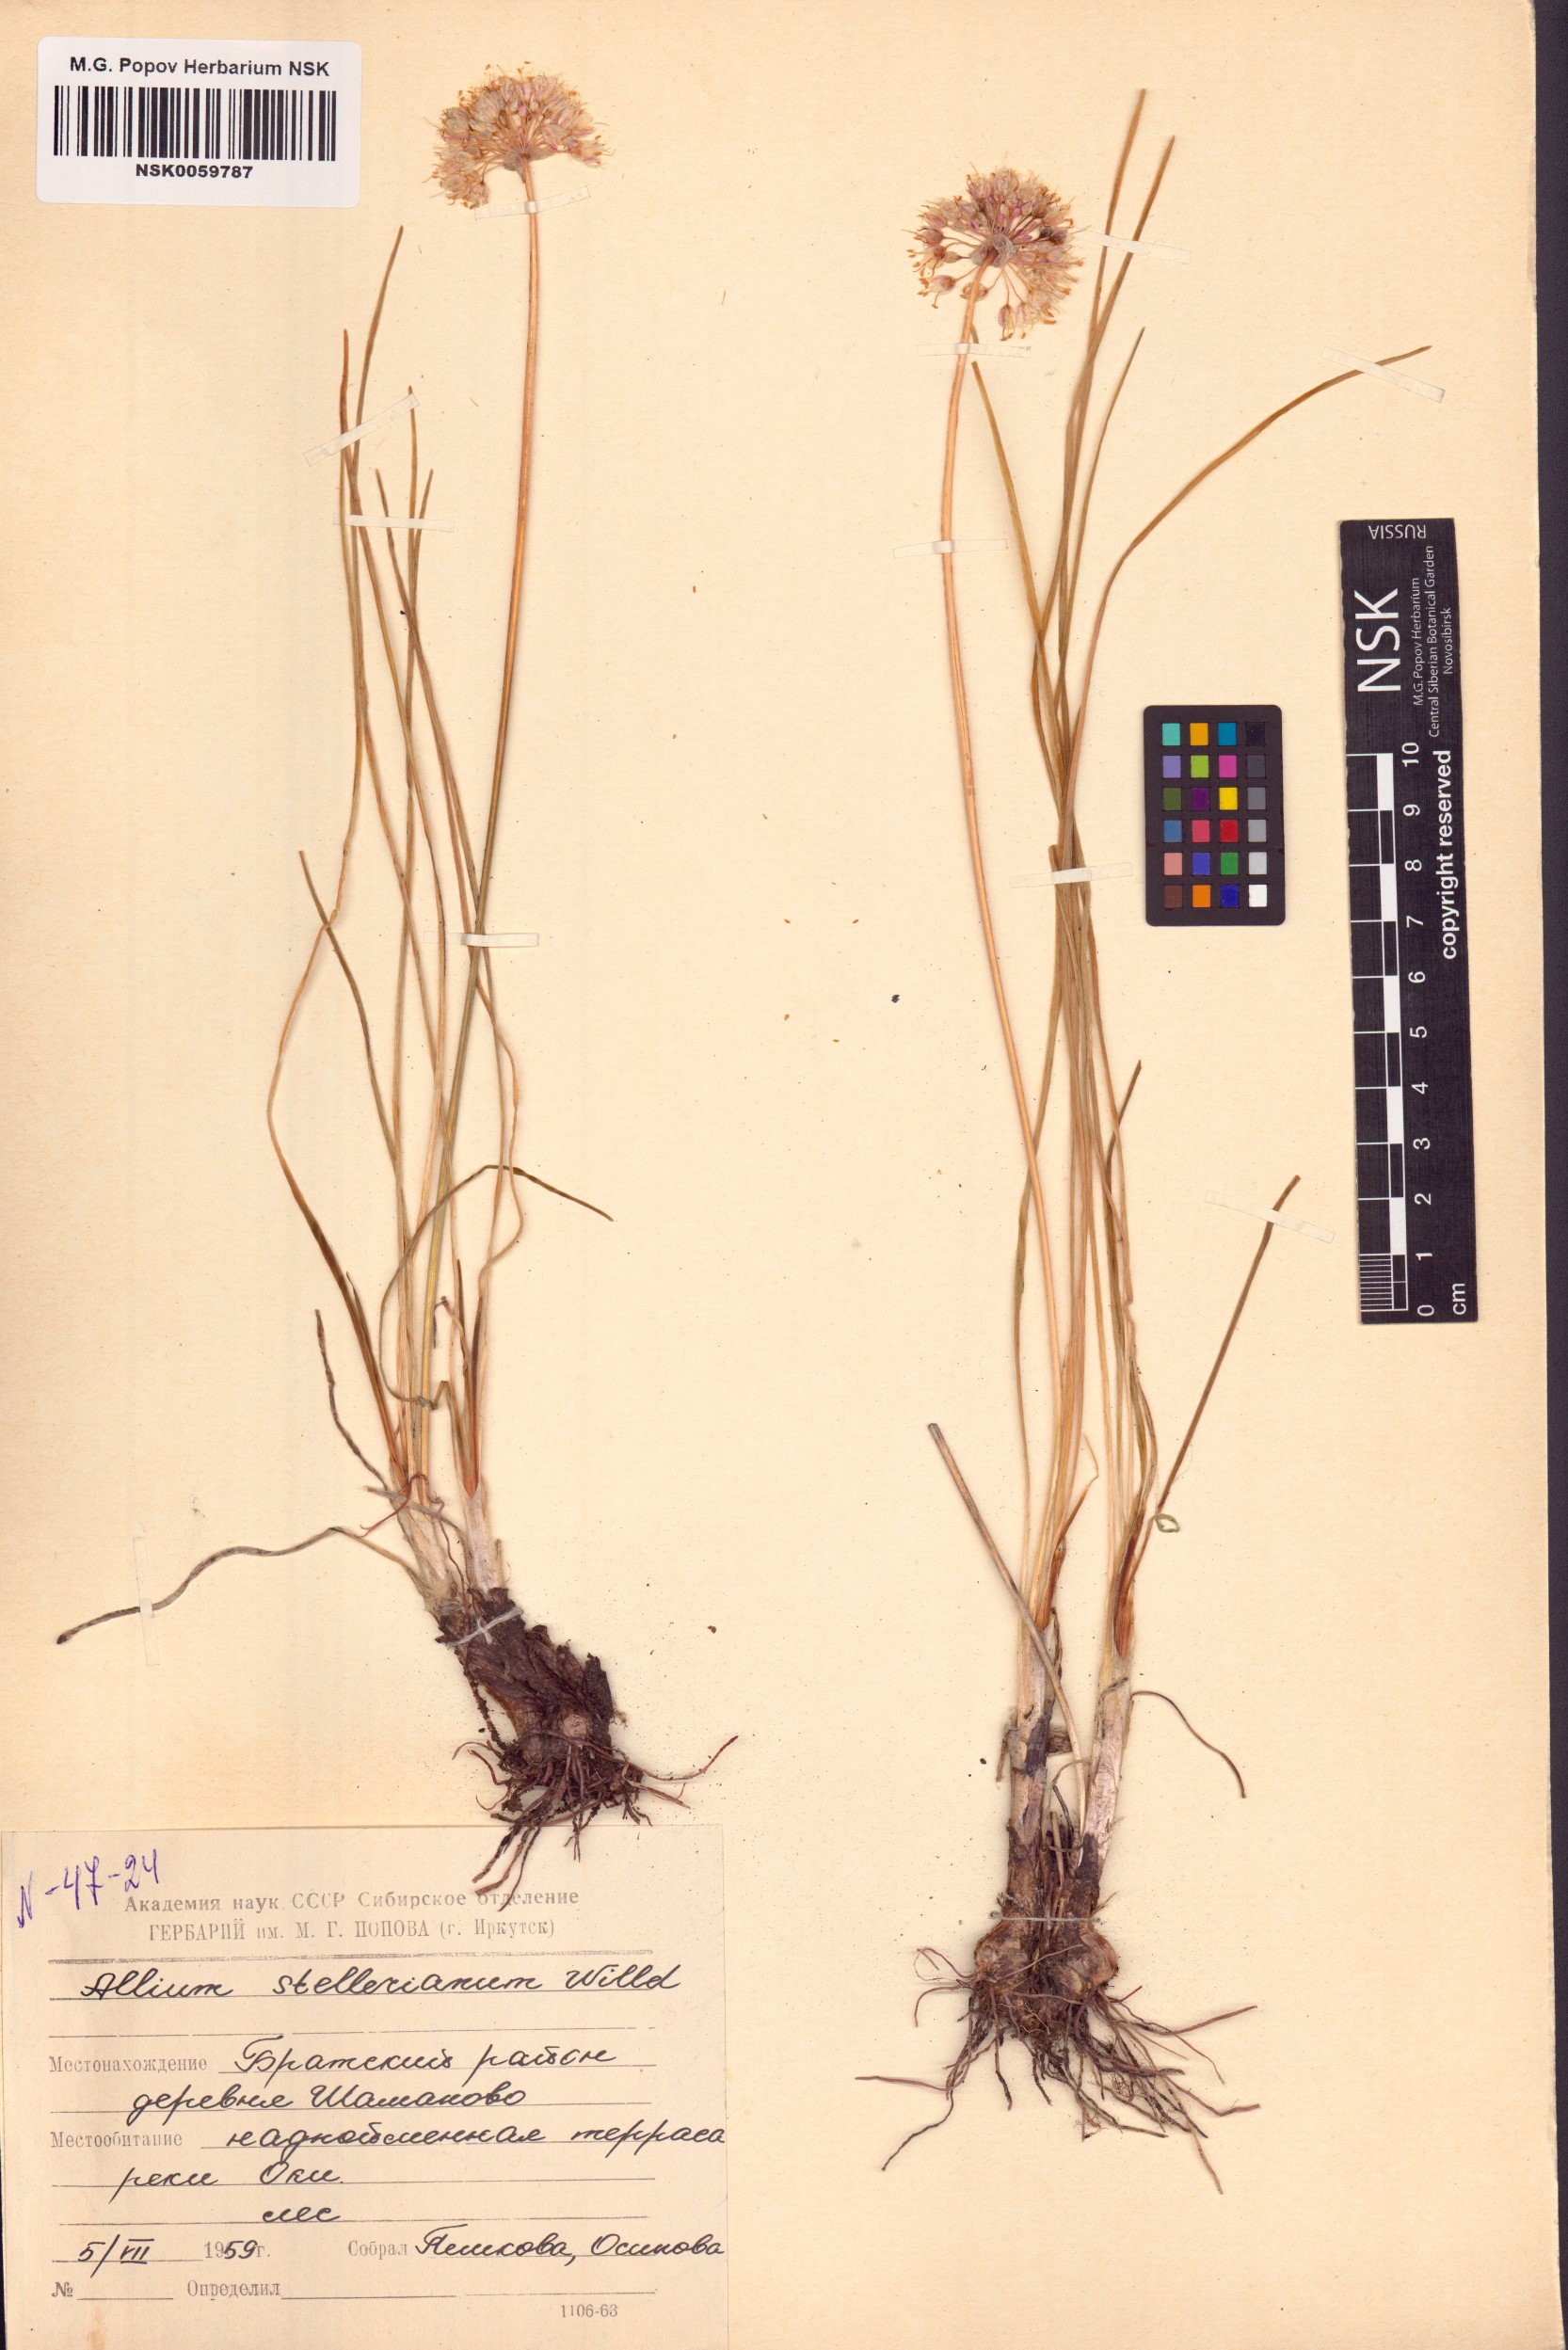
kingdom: Plantae
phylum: Tracheophyta
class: Liliopsida
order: Asparagales
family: Amaryllidaceae
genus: Allium
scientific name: Allium stellerianum
